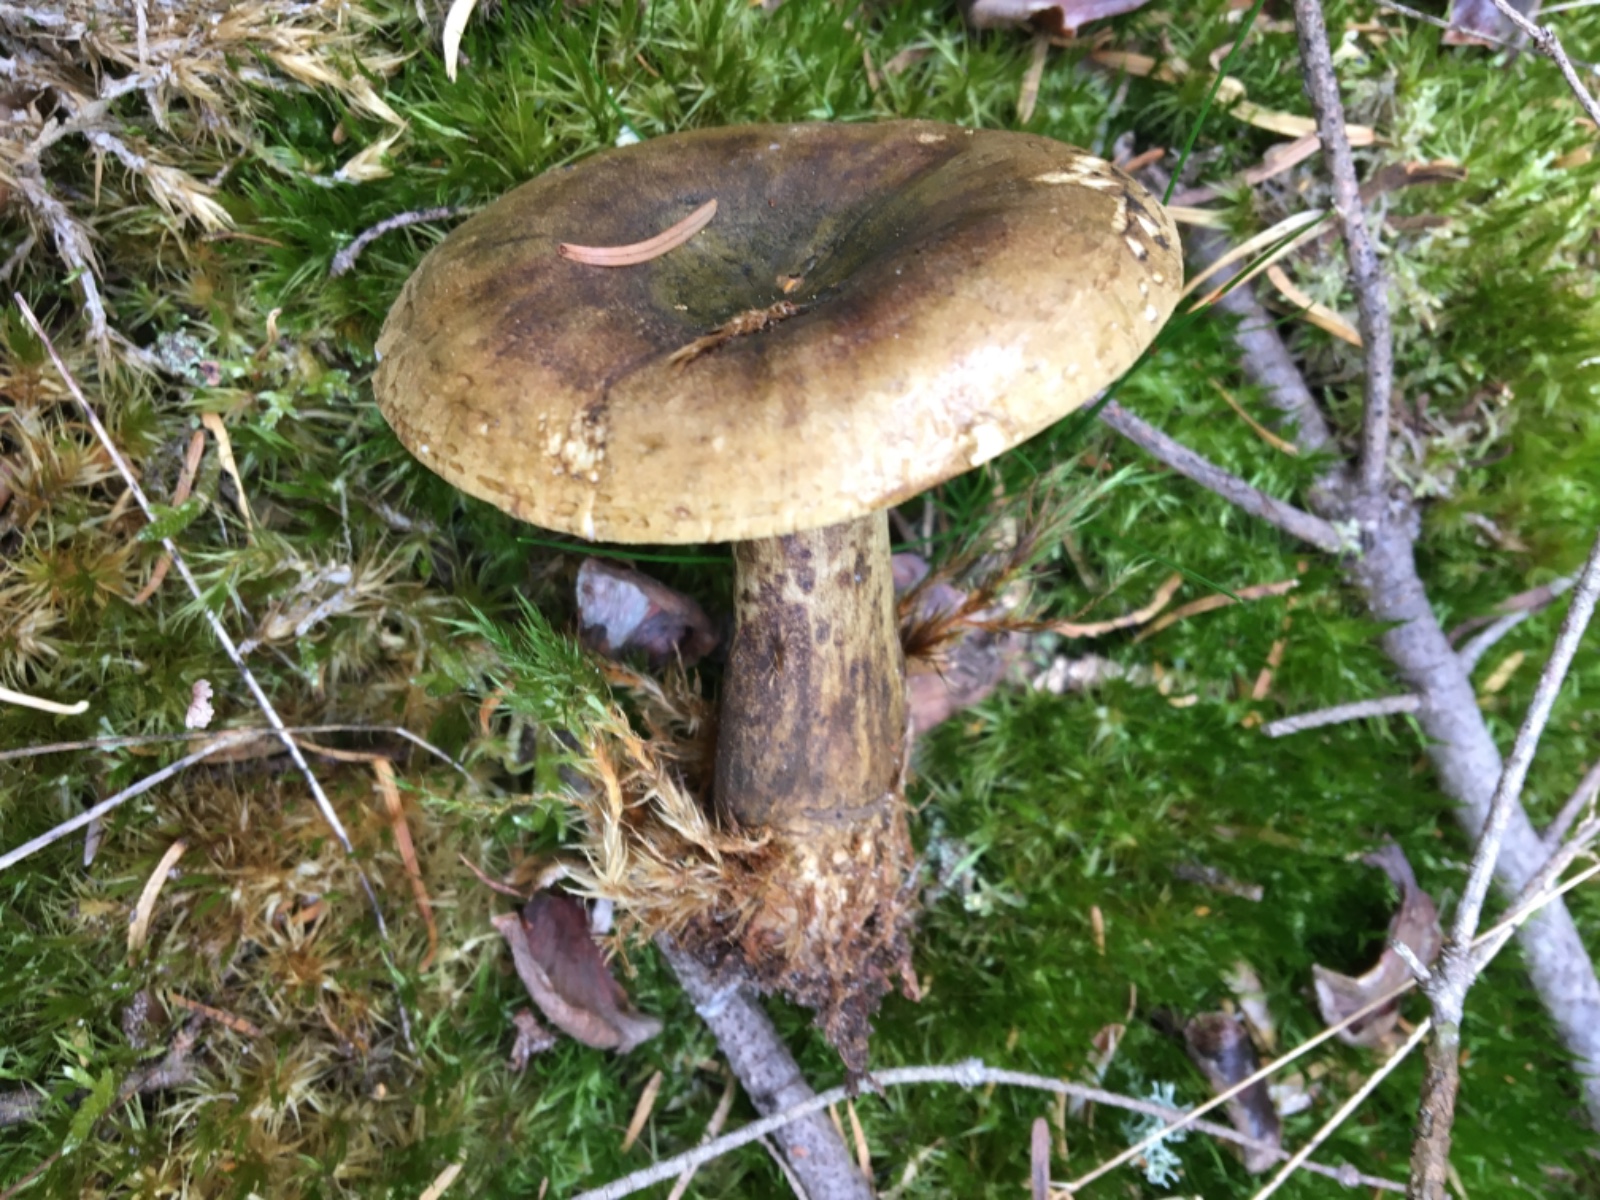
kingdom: Fungi
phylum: Basidiomycota
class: Agaricomycetes
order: Russulales
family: Russulaceae
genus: Lactarius
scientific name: Lactarius necator
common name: manddraber-mælkehat
